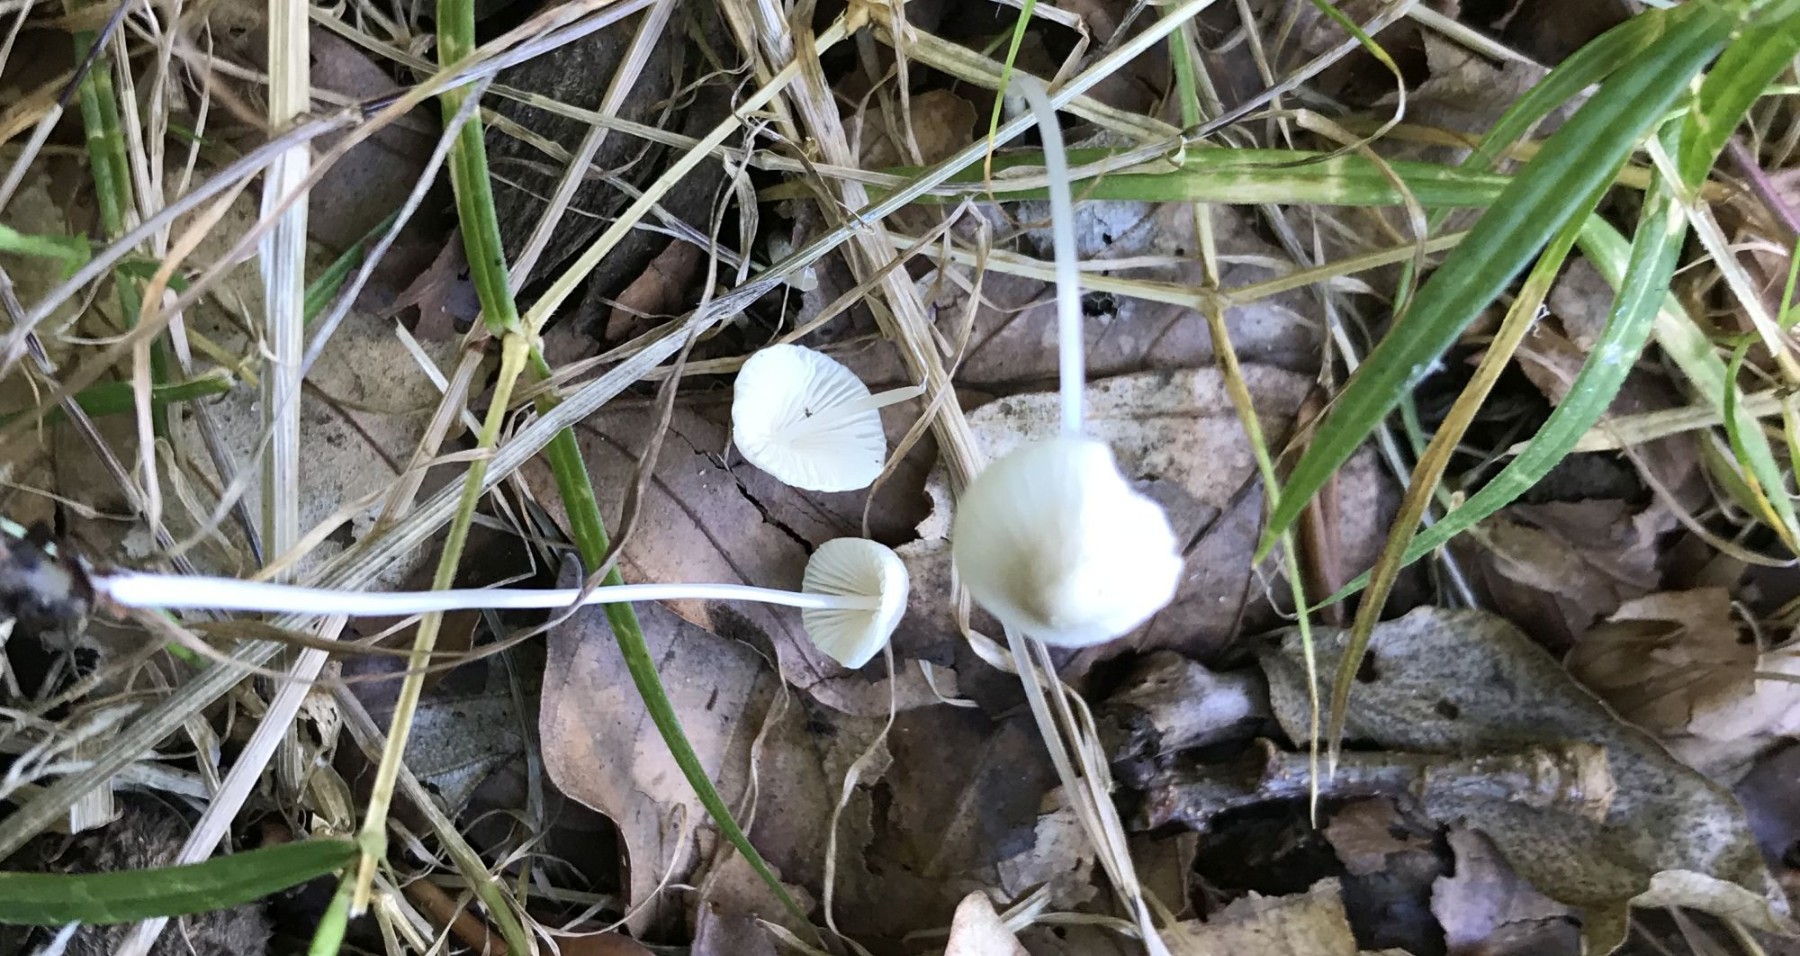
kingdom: Fungi
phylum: Basidiomycota
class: Agaricomycetes
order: Agaricales
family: Mycenaceae
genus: Mycena
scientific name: Mycena
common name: huesvamp
